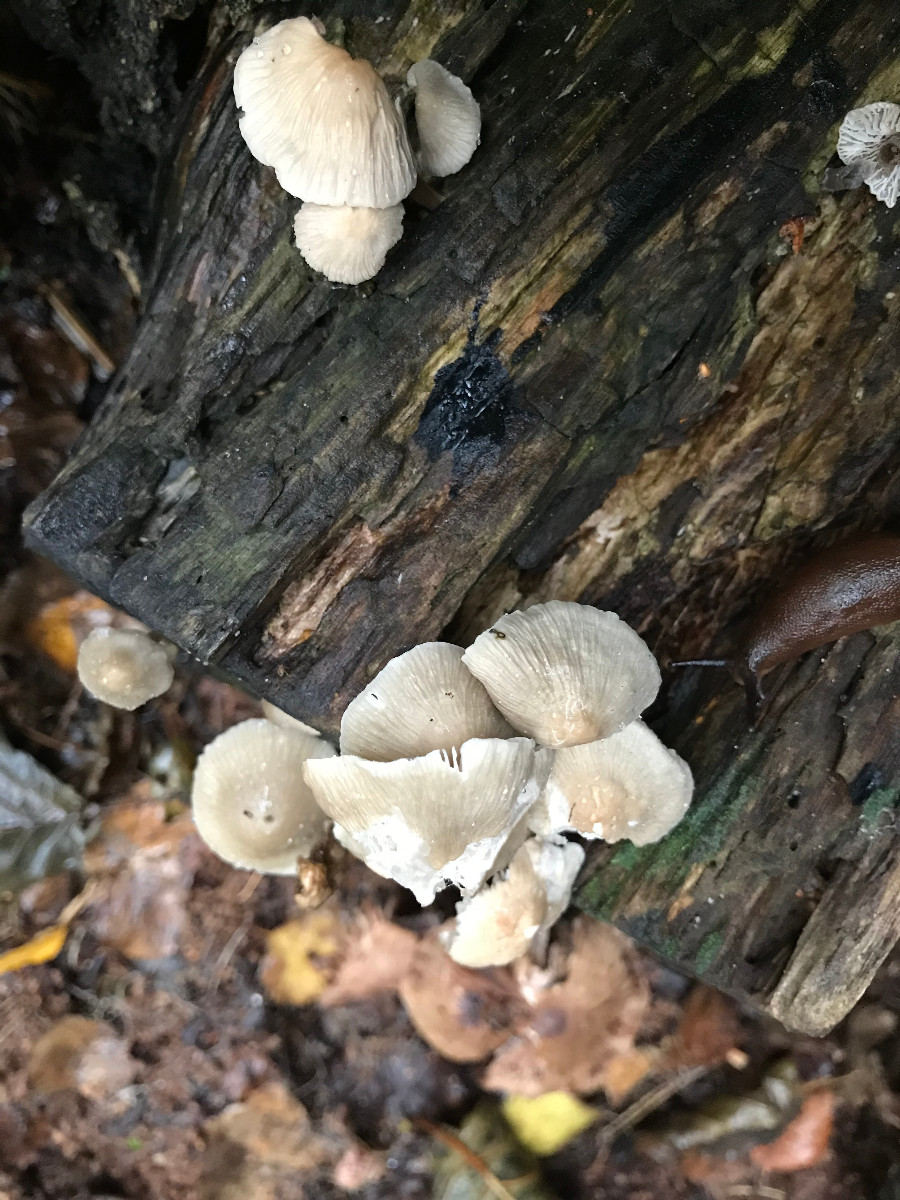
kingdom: Fungi
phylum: Basidiomycota
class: Agaricomycetes
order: Agaricales
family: Mycenaceae
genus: Mycena
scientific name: Mycena galericulata
